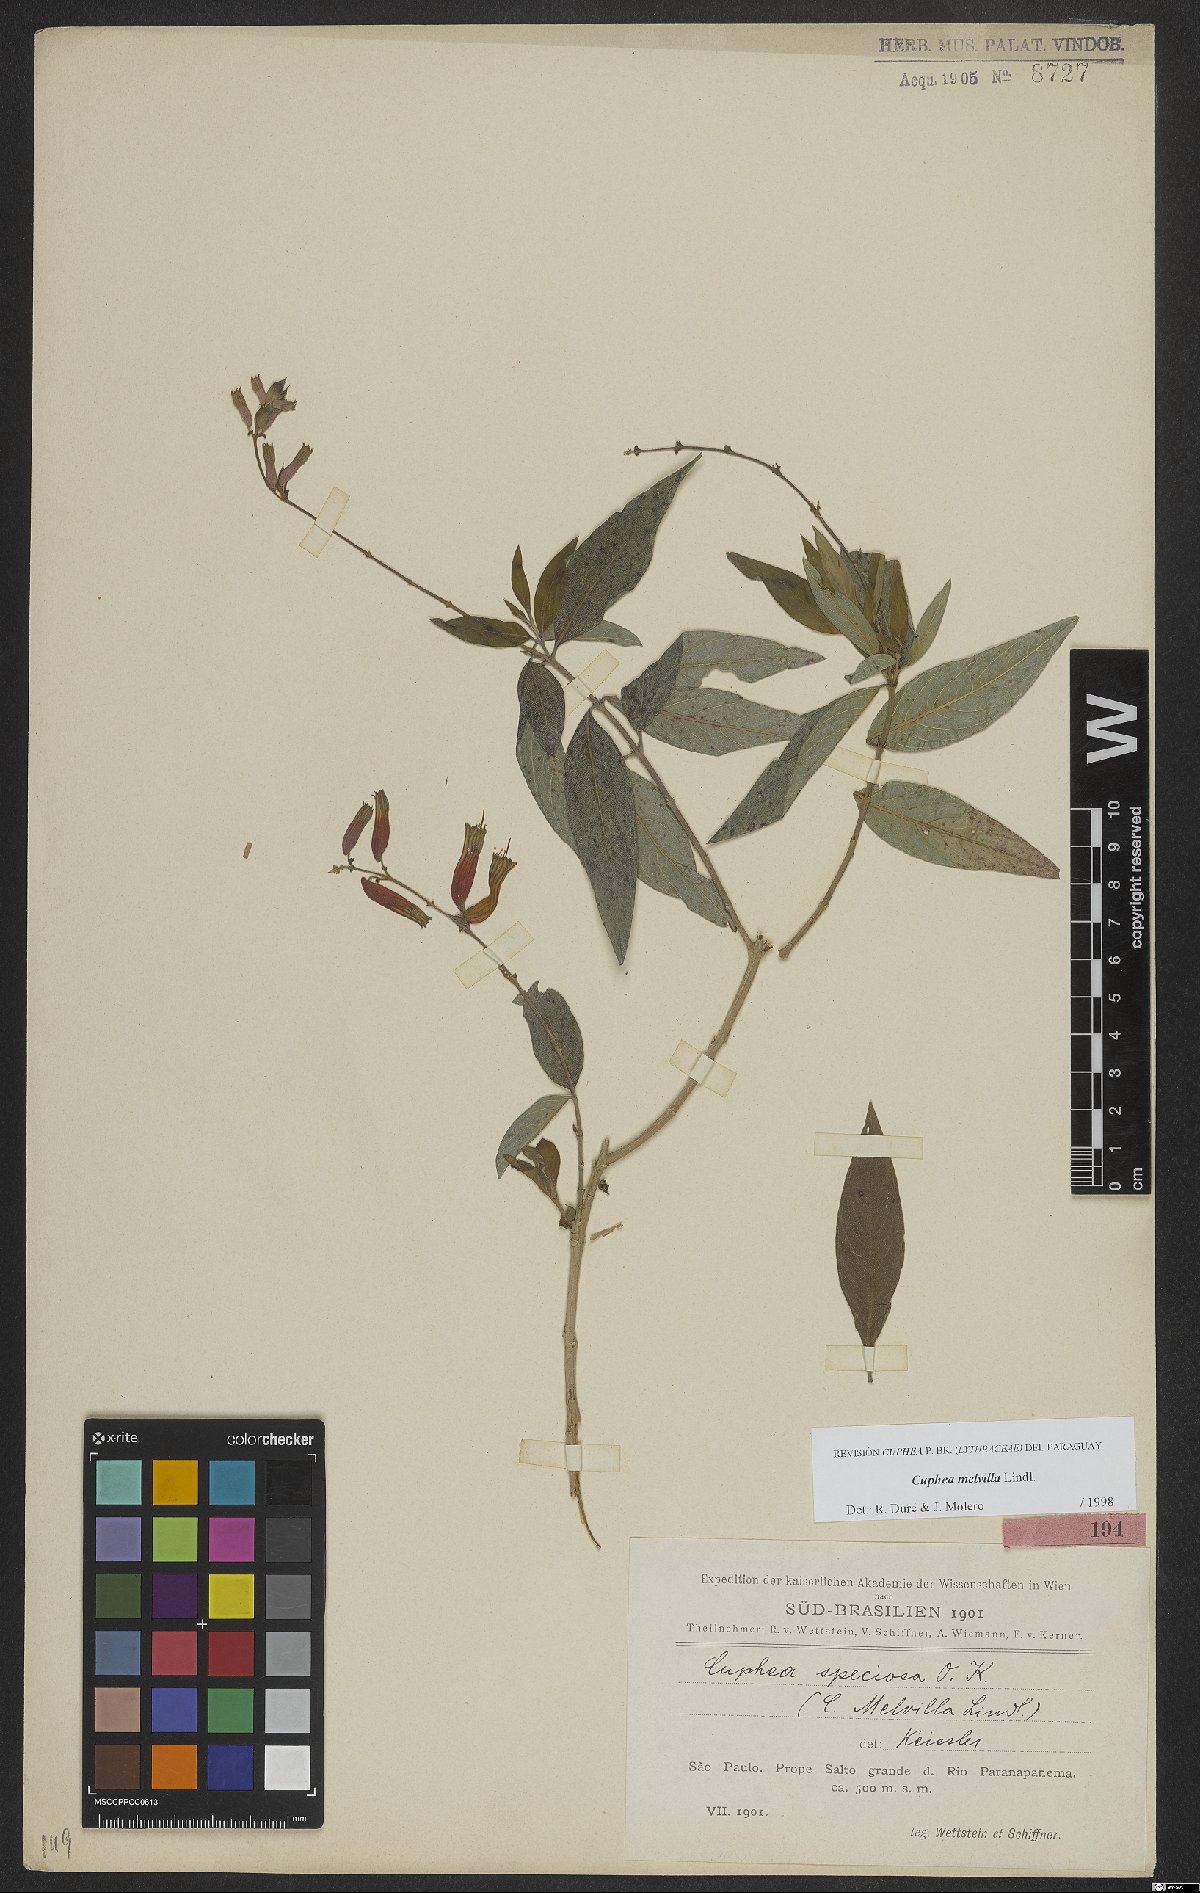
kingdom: Plantae
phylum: Tracheophyta
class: Magnoliopsida
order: Myrtales
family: Lythraceae
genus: Cuphea
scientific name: Cuphea melvilla
